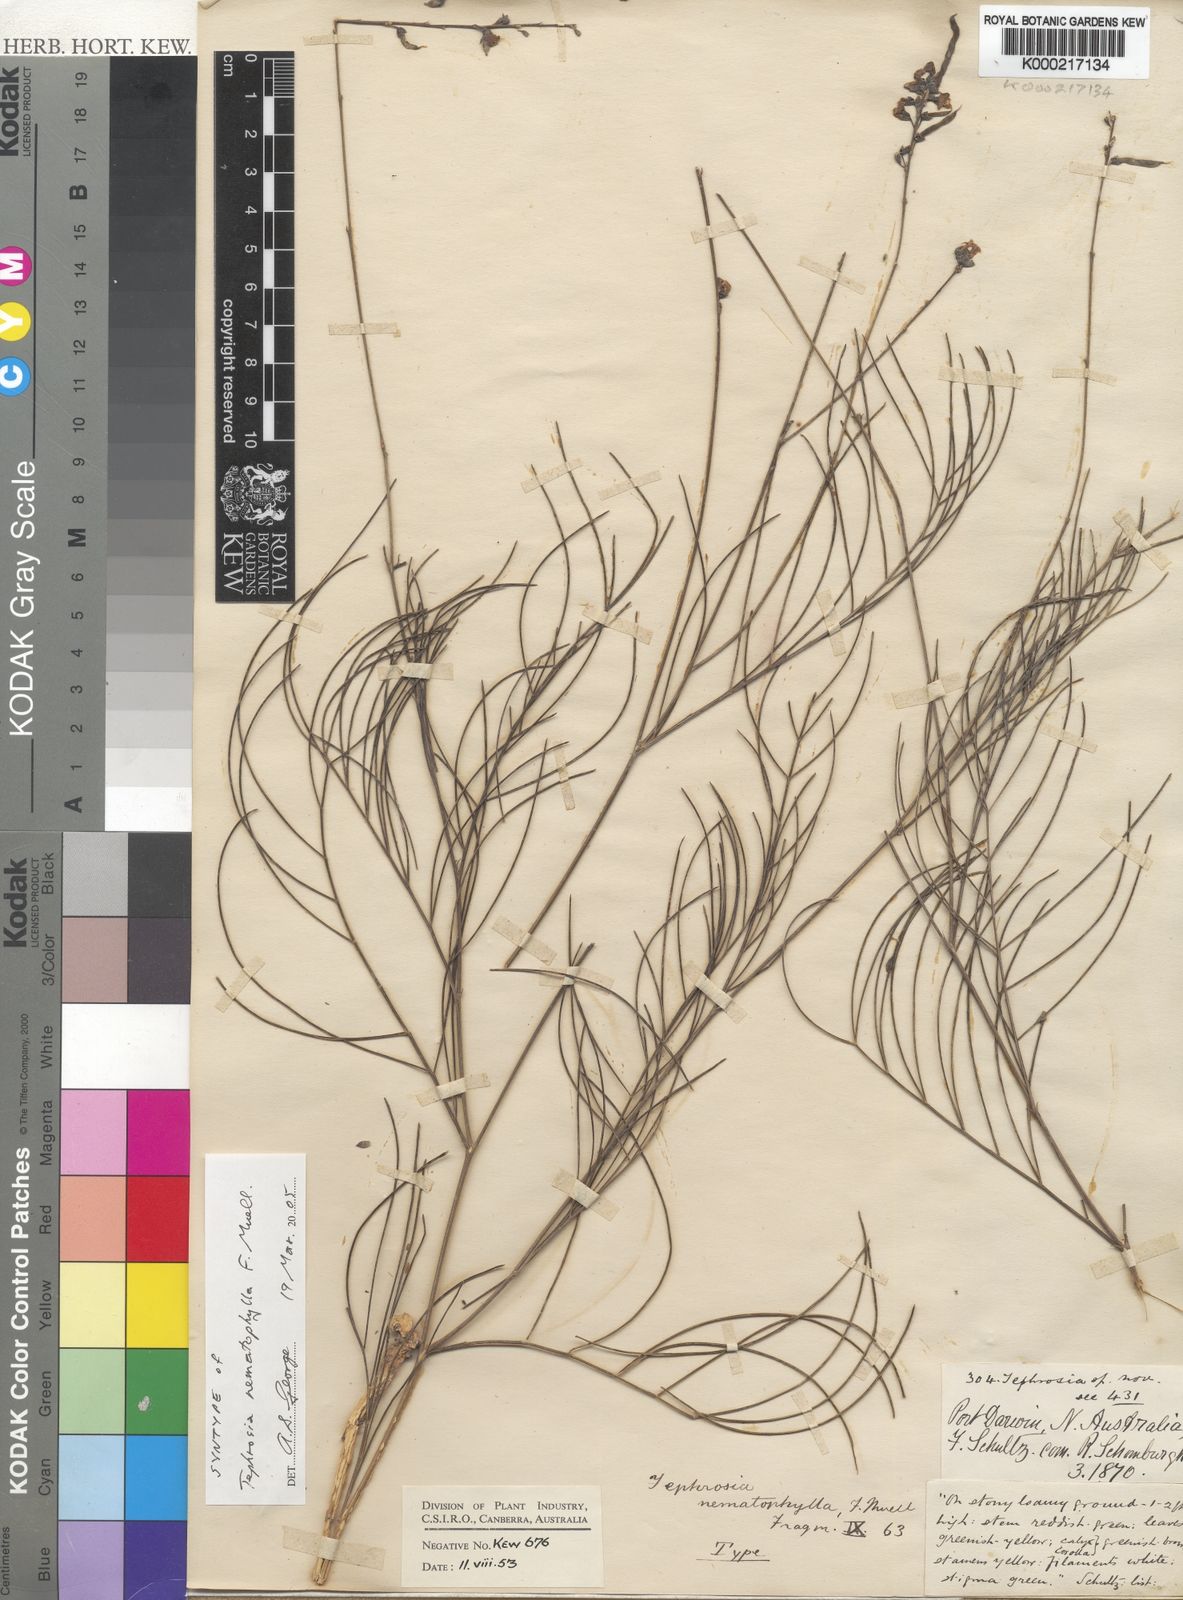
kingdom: Plantae
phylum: Tracheophyta
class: Magnoliopsida
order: Fabales
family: Fabaceae
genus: Tephrosia
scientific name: Tephrosia nematophylla
